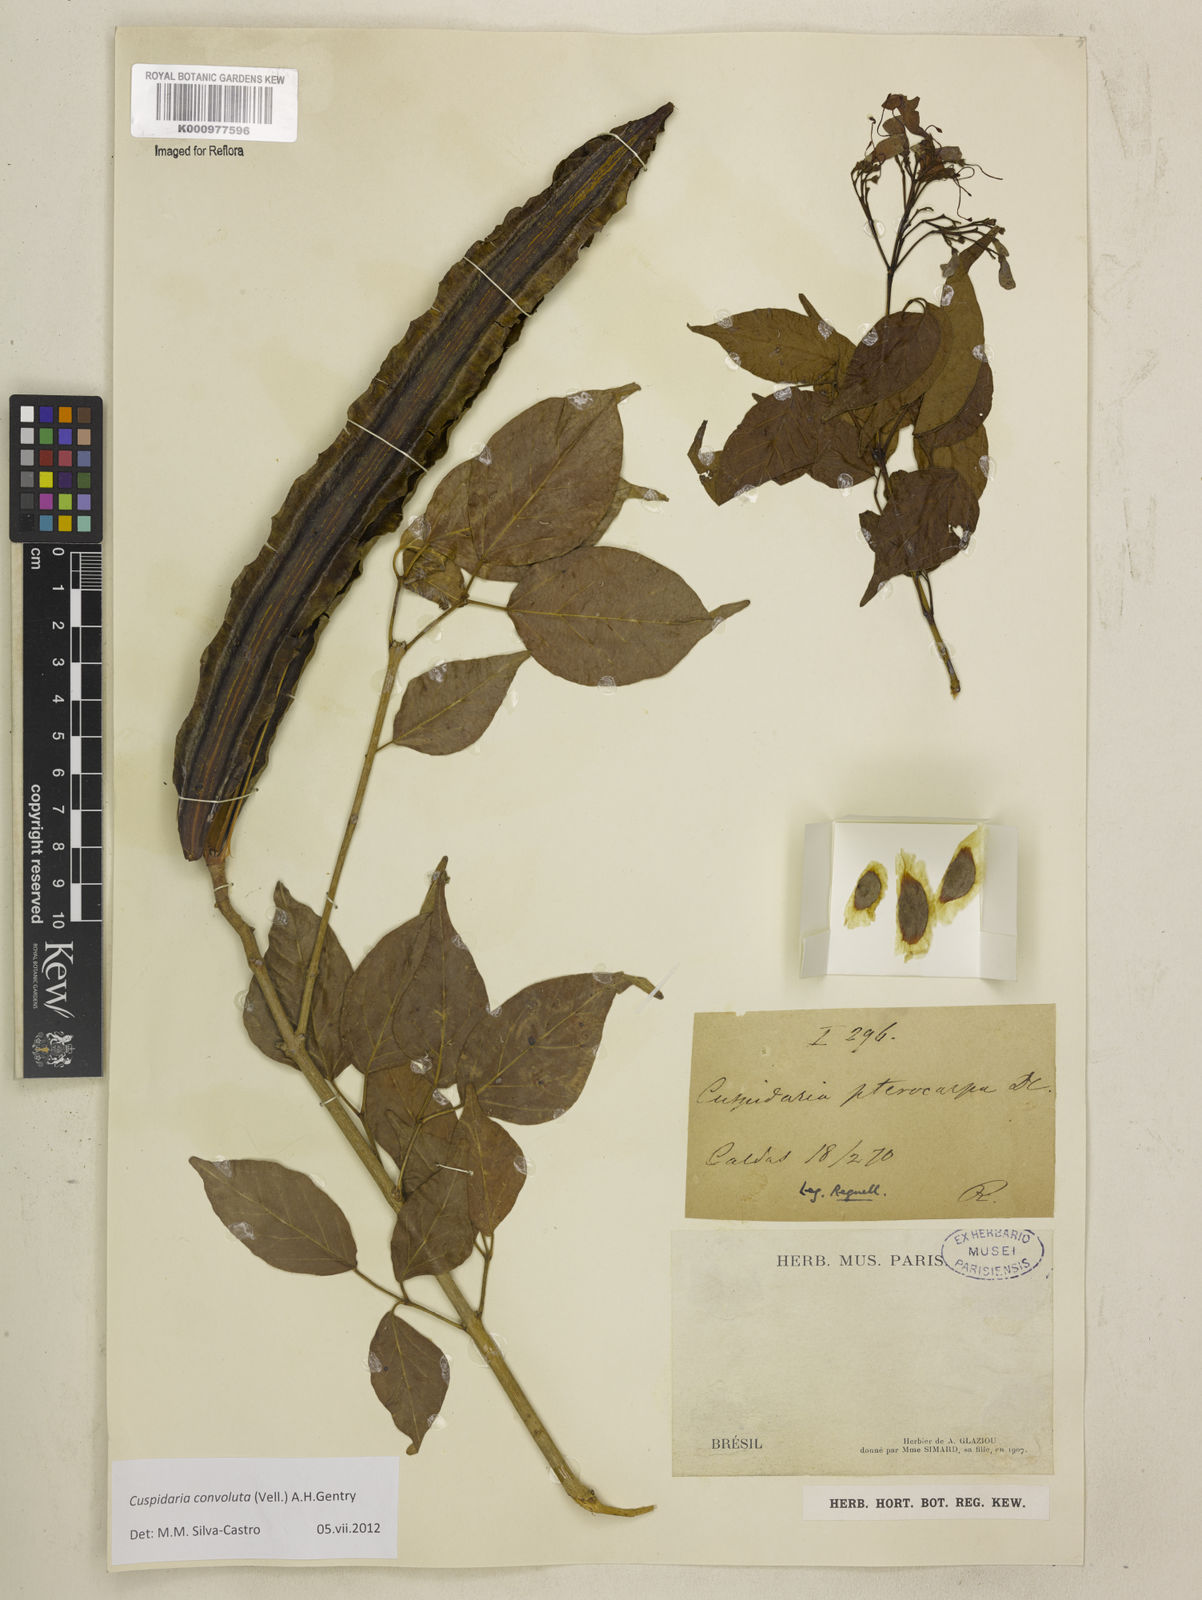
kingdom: Plantae
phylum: Tracheophyta
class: Magnoliopsida
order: Lamiales
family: Bignoniaceae
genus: Cuspidaria
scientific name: Cuspidaria convoluta
